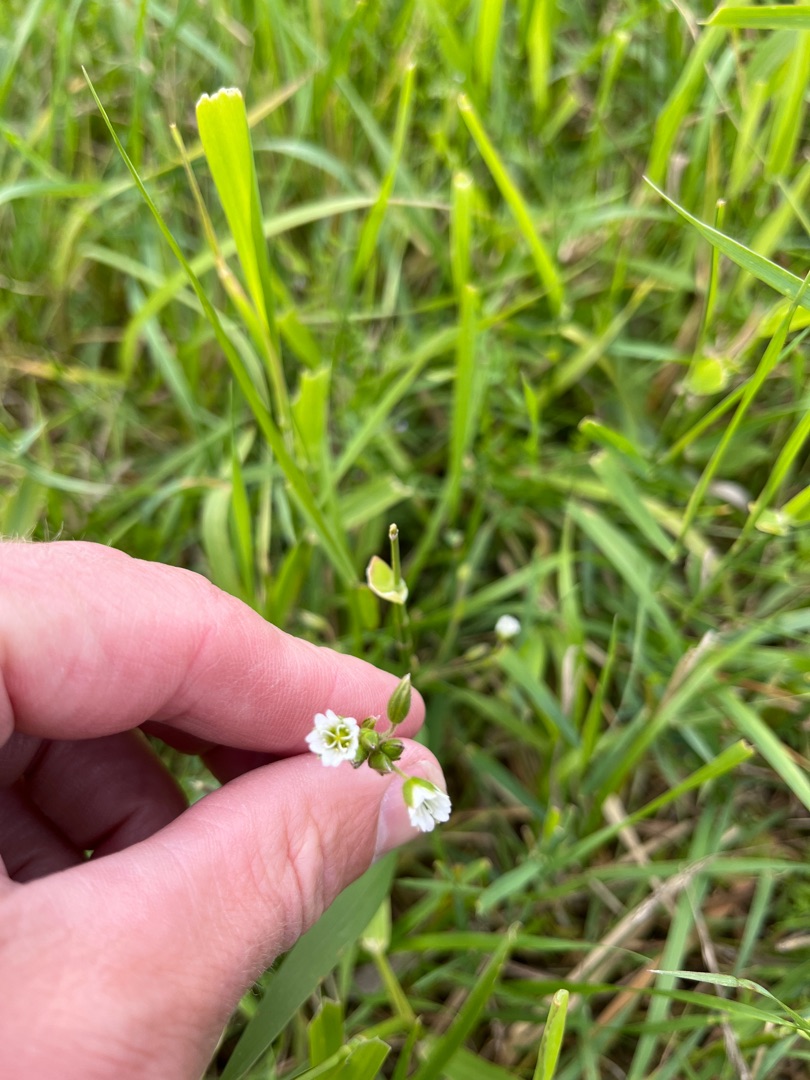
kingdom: Plantae
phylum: Tracheophyta
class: Magnoliopsida
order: Caryophyllales
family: Caryophyllaceae
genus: Cerastium
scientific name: Cerastium fontanum
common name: Almindelig hønsetarm
